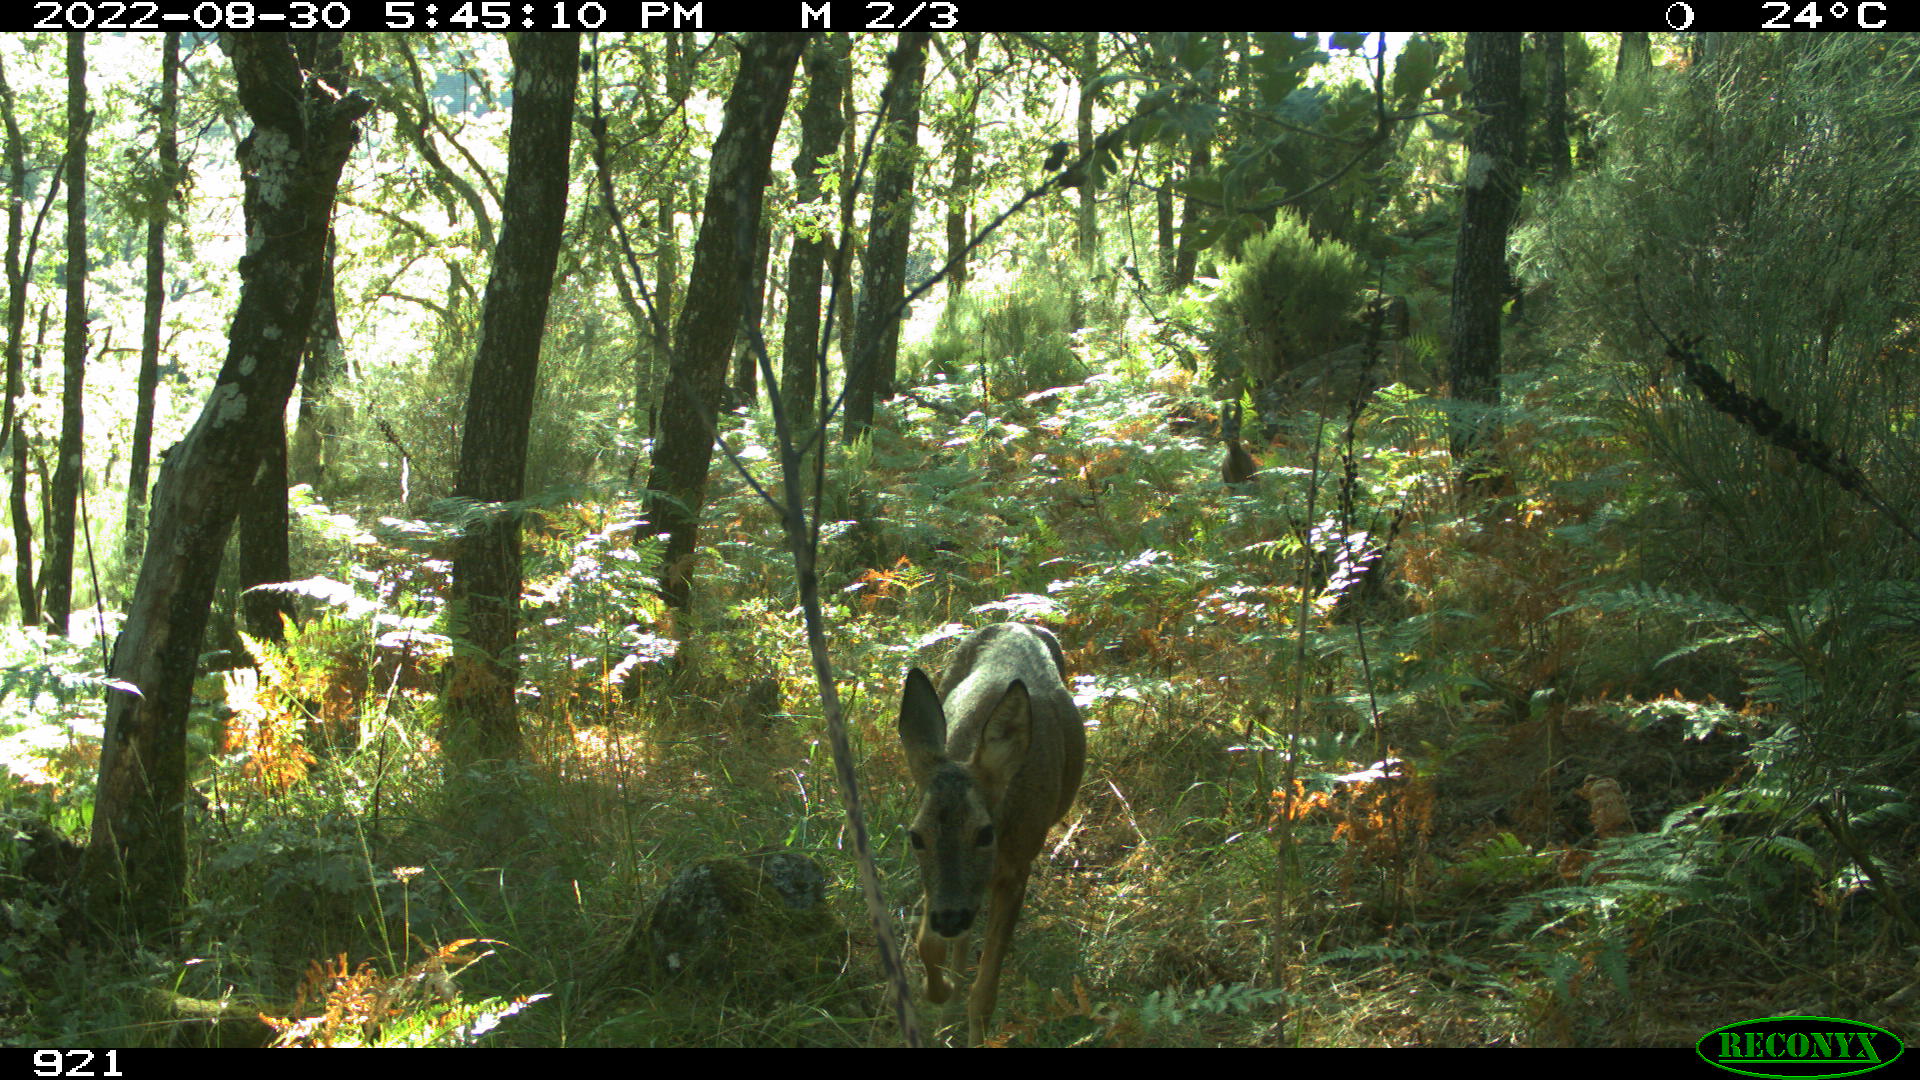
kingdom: Animalia
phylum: Chordata
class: Mammalia
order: Artiodactyla
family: Cervidae
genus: Capreolus
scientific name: Capreolus capreolus
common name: Western roe deer
